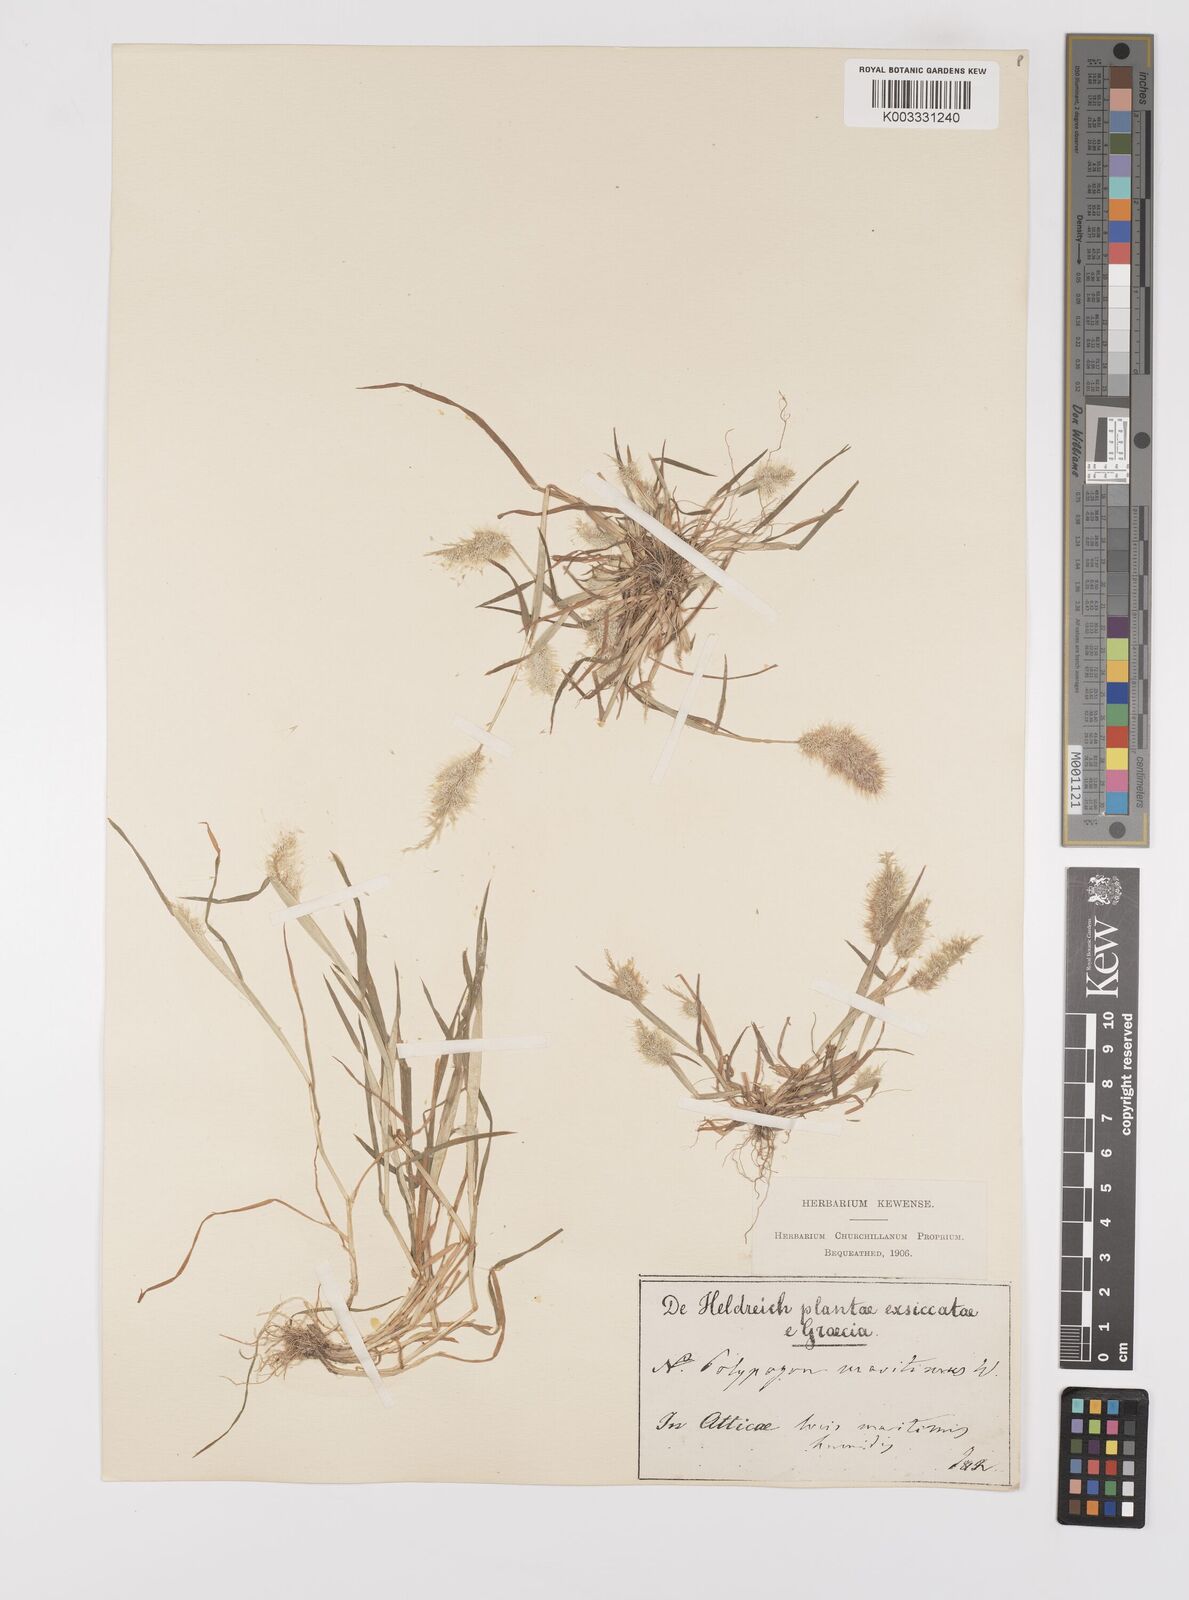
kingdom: Plantae
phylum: Tracheophyta
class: Liliopsida
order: Poales
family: Poaceae
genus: Polypogon
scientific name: Polypogon maritimus
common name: Mediterranean rabbitsfoot grass
